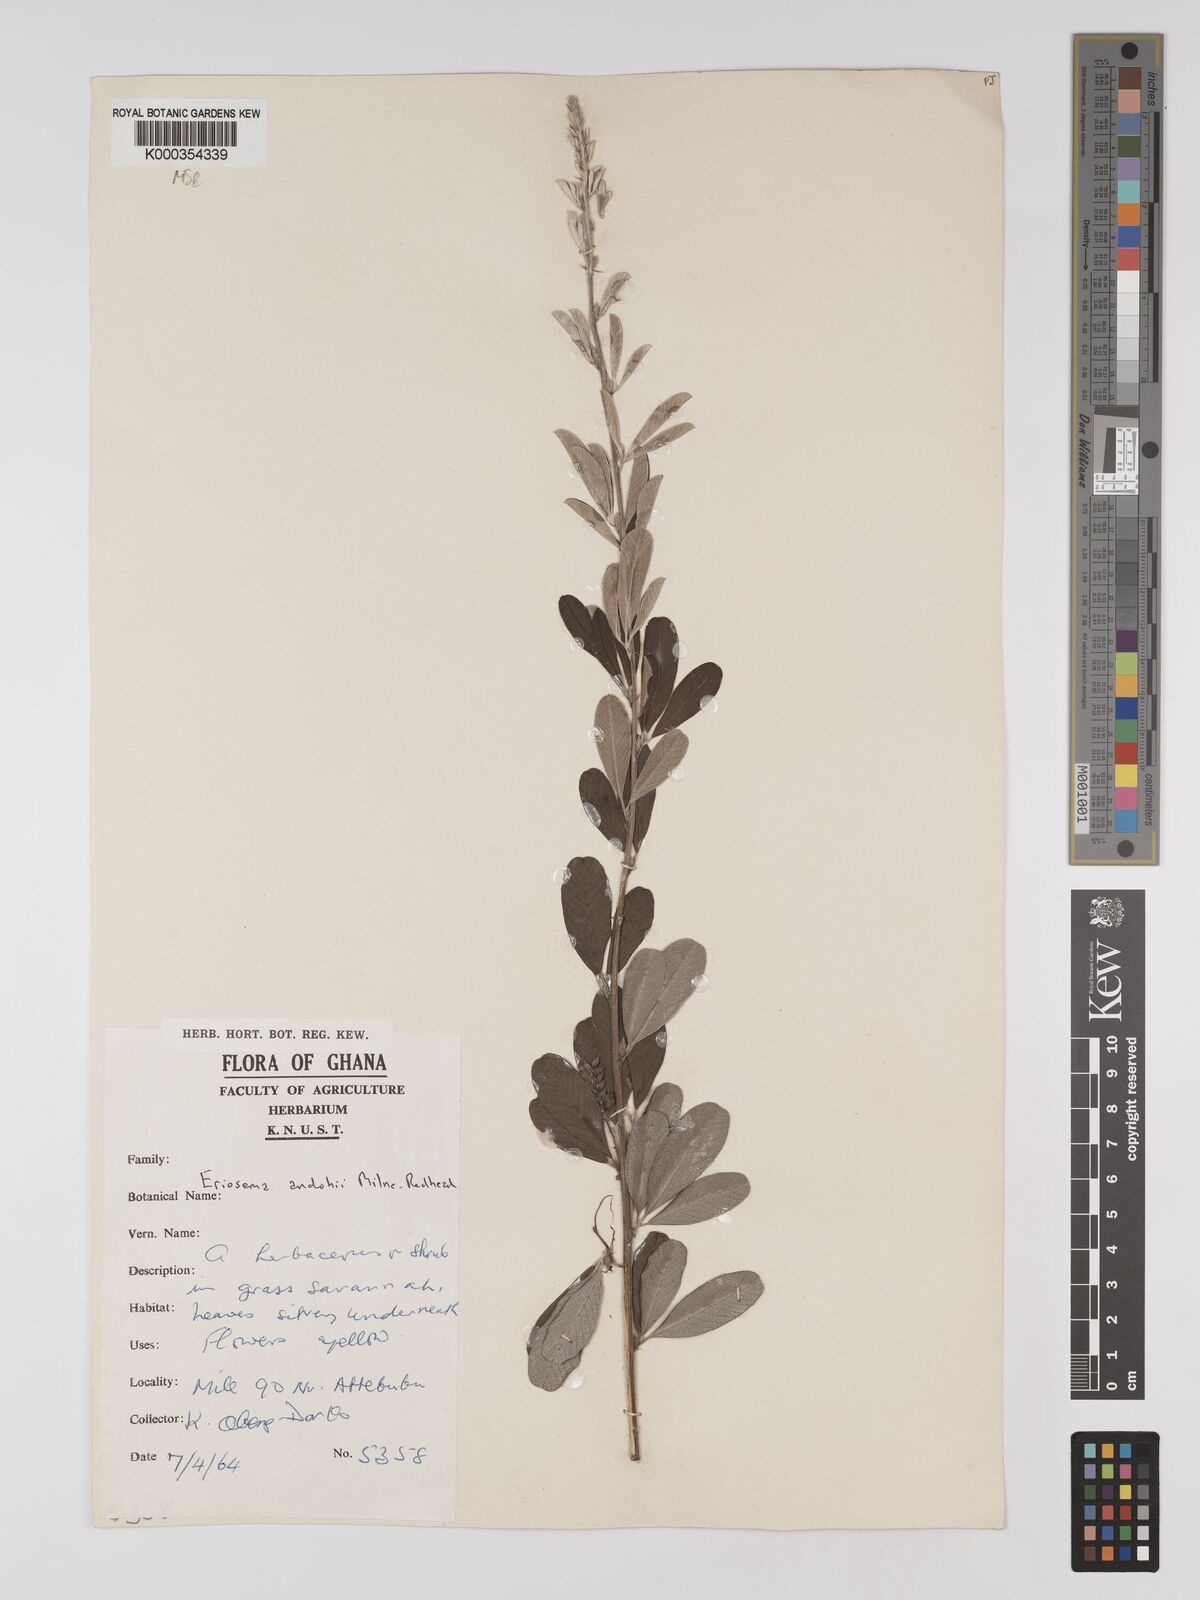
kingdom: Plantae
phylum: Tracheophyta
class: Magnoliopsida
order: Fabales
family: Fabaceae
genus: Eriosema
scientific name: Eriosema andohii
